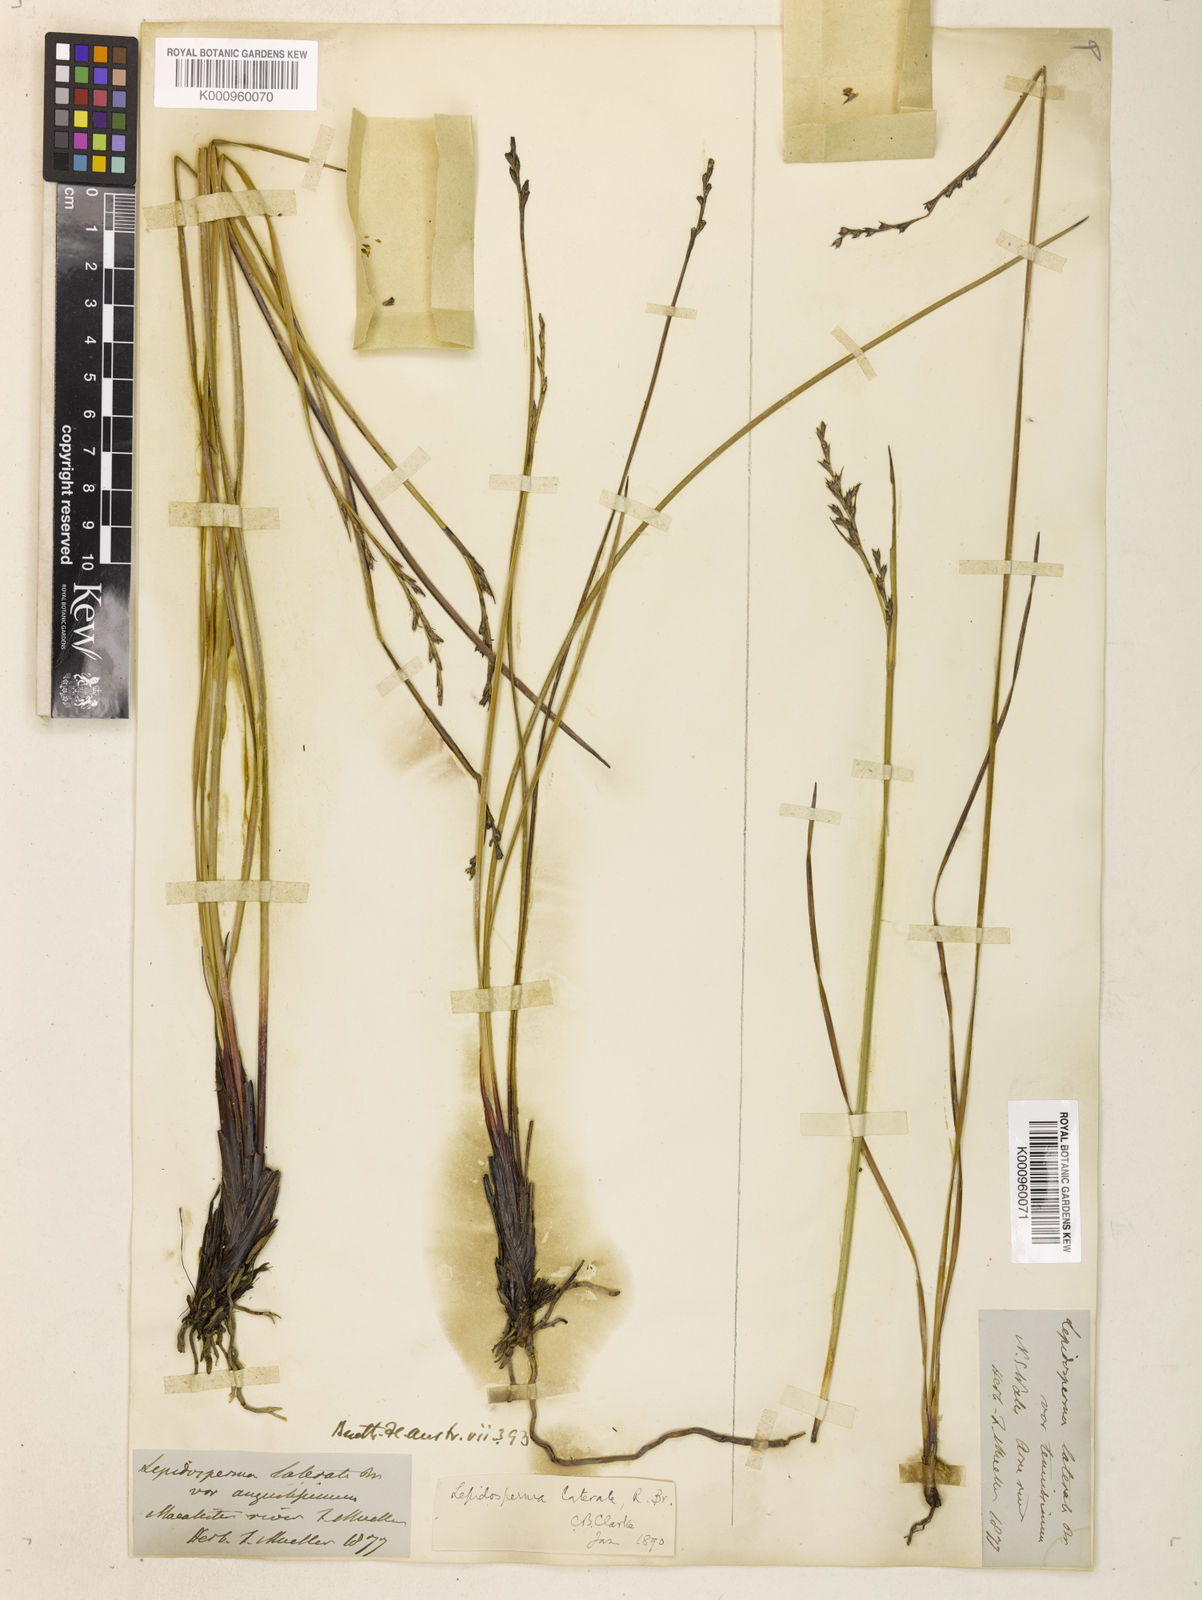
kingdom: Plantae
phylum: Tracheophyta
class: Liliopsida
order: Poales
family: Cyperaceae
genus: Lepidosperma
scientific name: Lepidosperma laterale
